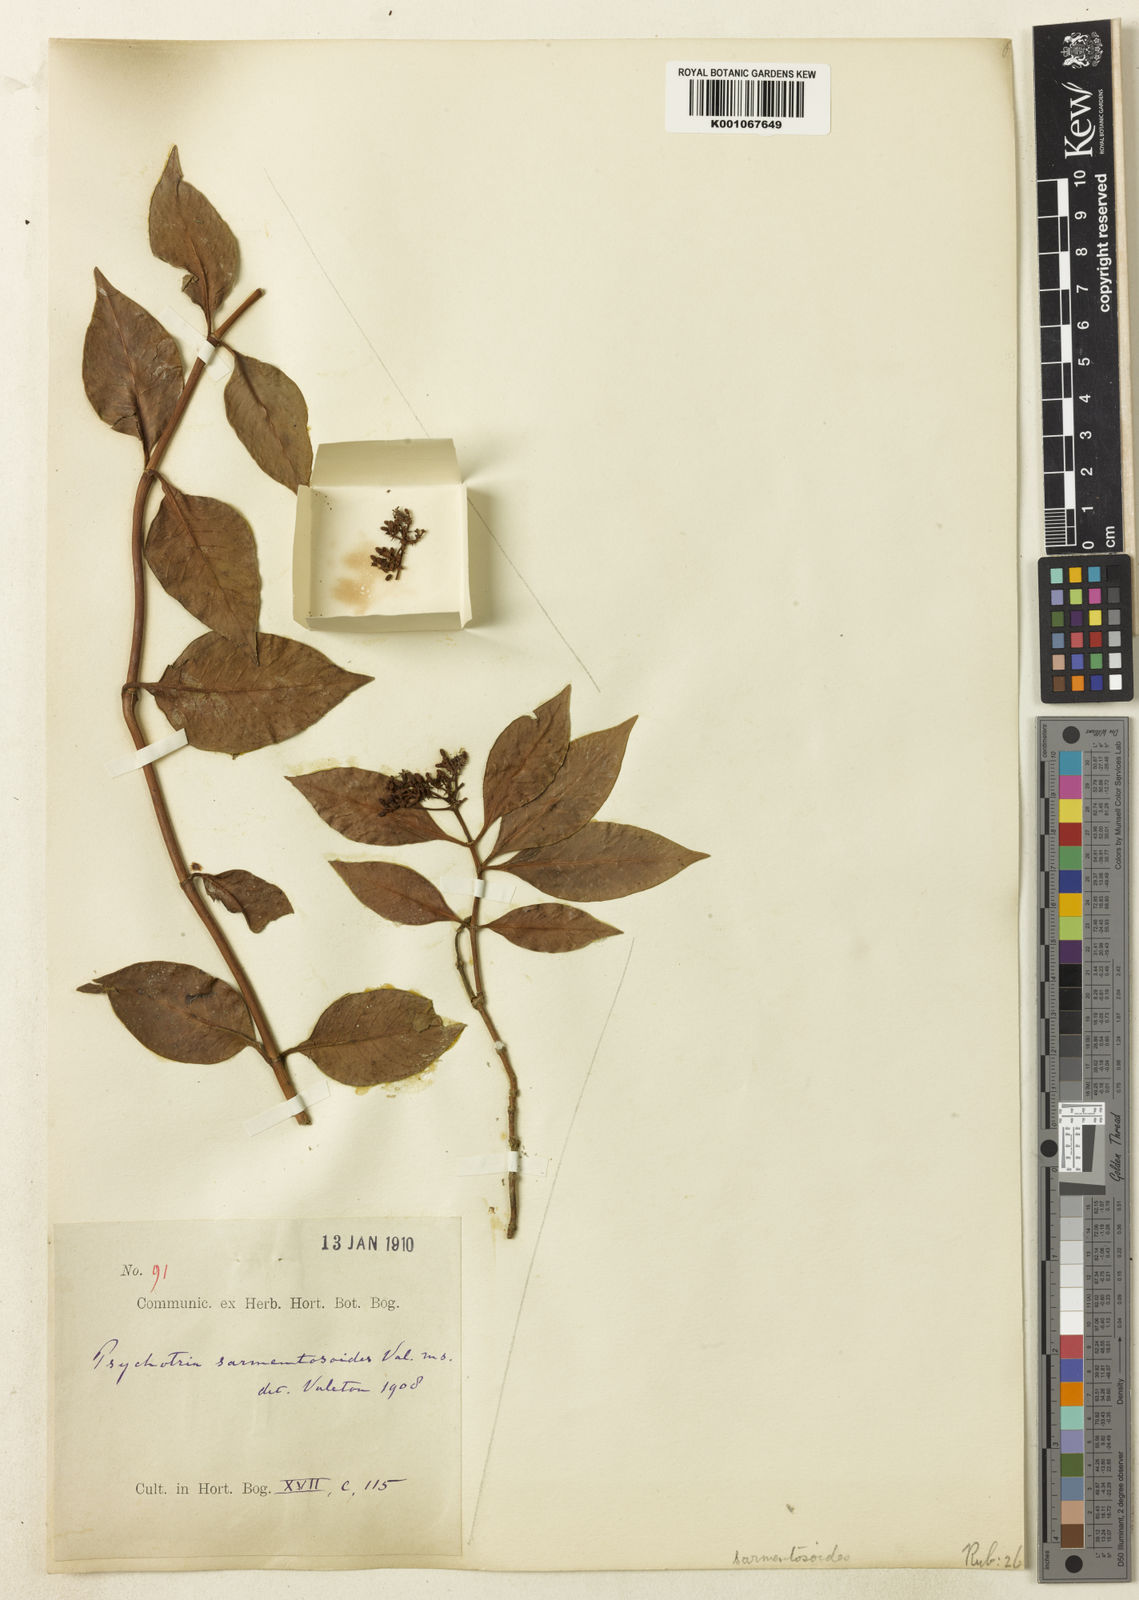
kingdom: Plantae
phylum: Tracheophyta
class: Magnoliopsida
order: Gentianales
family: Rubiaceae
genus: Psychotria
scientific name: Psychotria sarmentosoides
